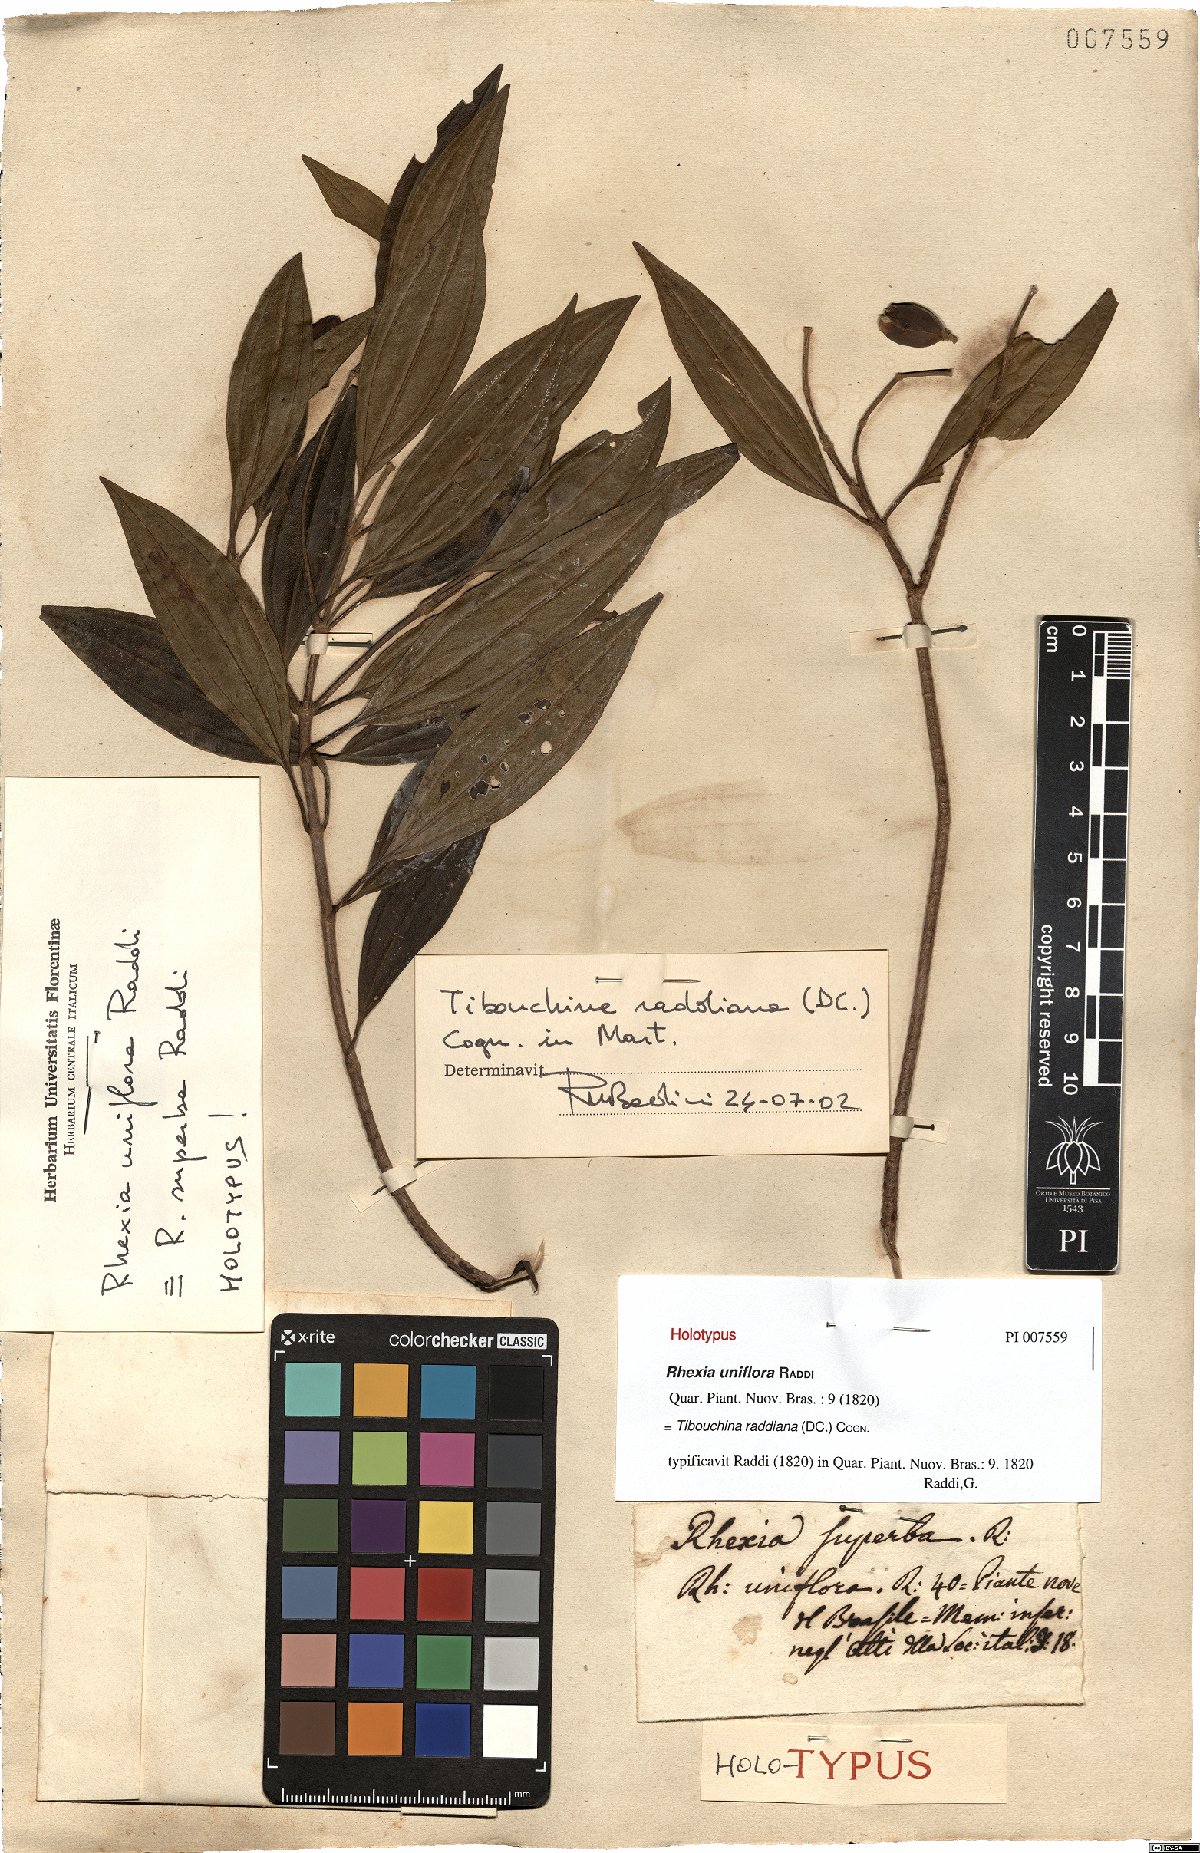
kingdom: Plantae
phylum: Tracheophyta
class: Magnoliopsida
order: Myrtales
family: Melastomataceae
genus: Pleroma
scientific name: Pleroma raddianum
